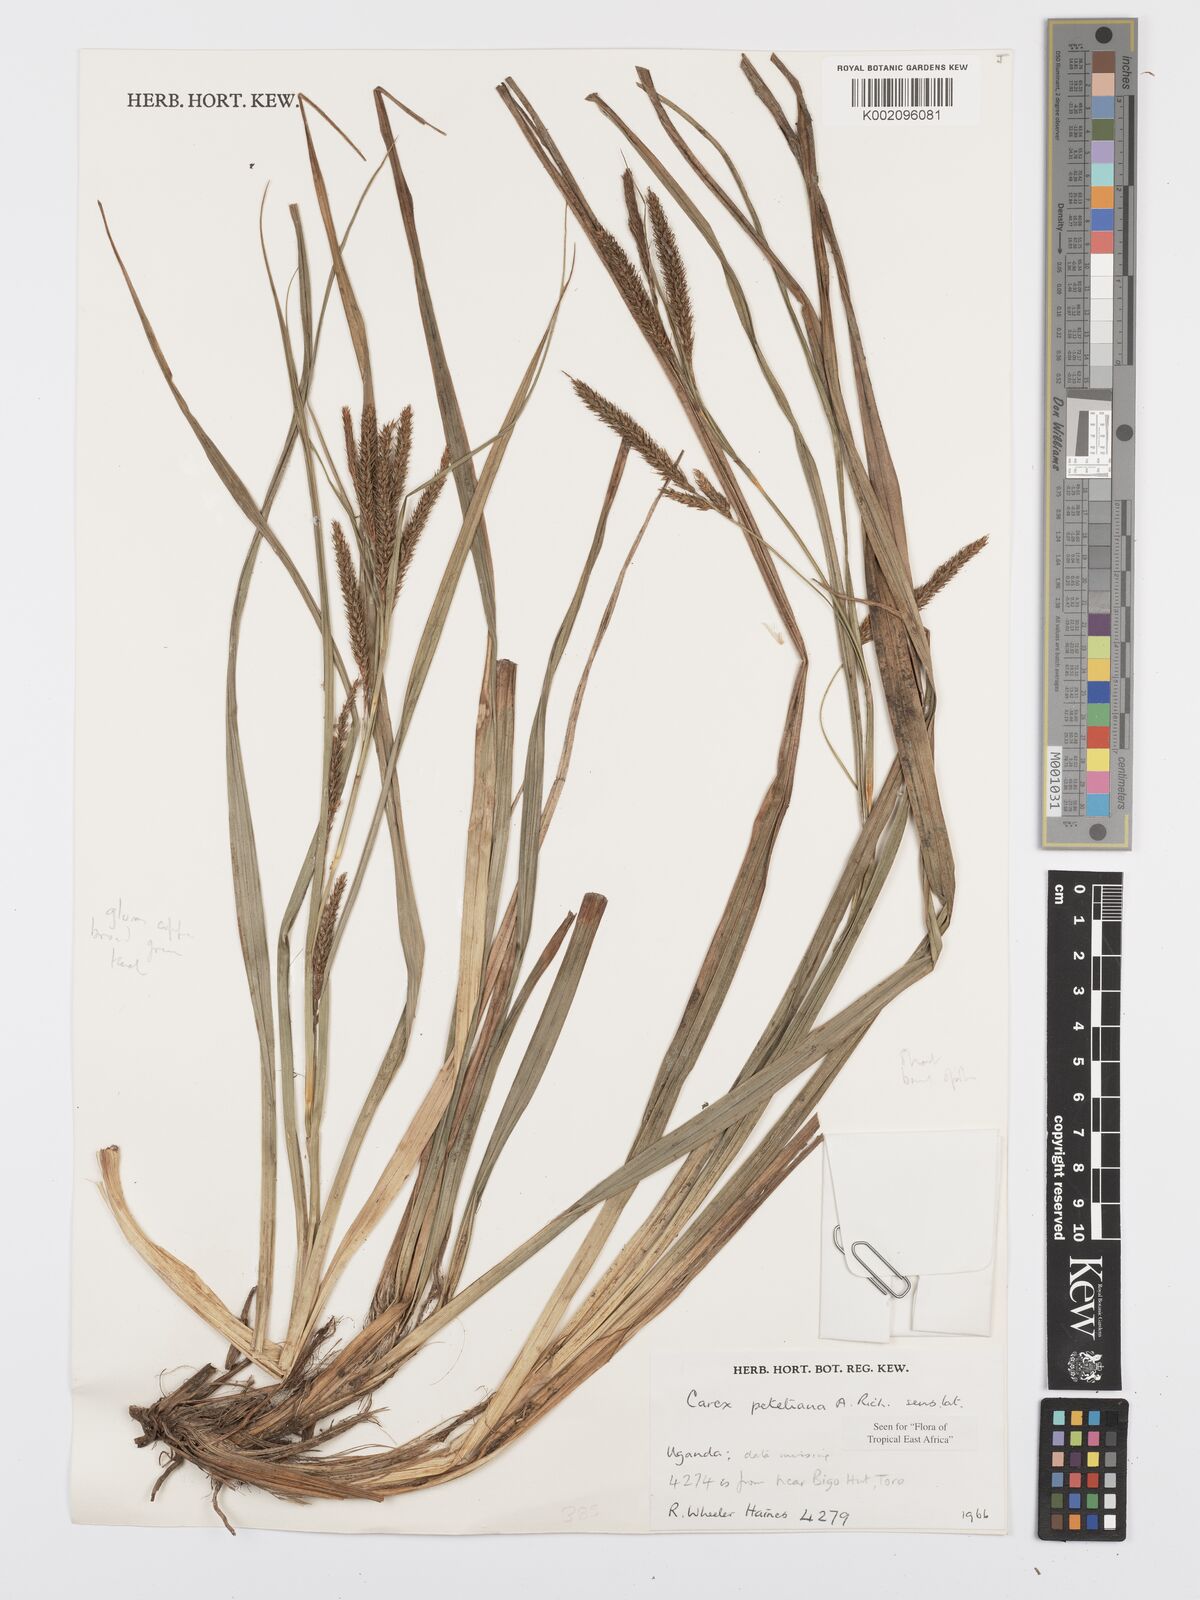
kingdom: Plantae
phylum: Tracheophyta
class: Liliopsida
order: Poales
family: Cyperaceae
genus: Carex
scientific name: Carex fischeri
